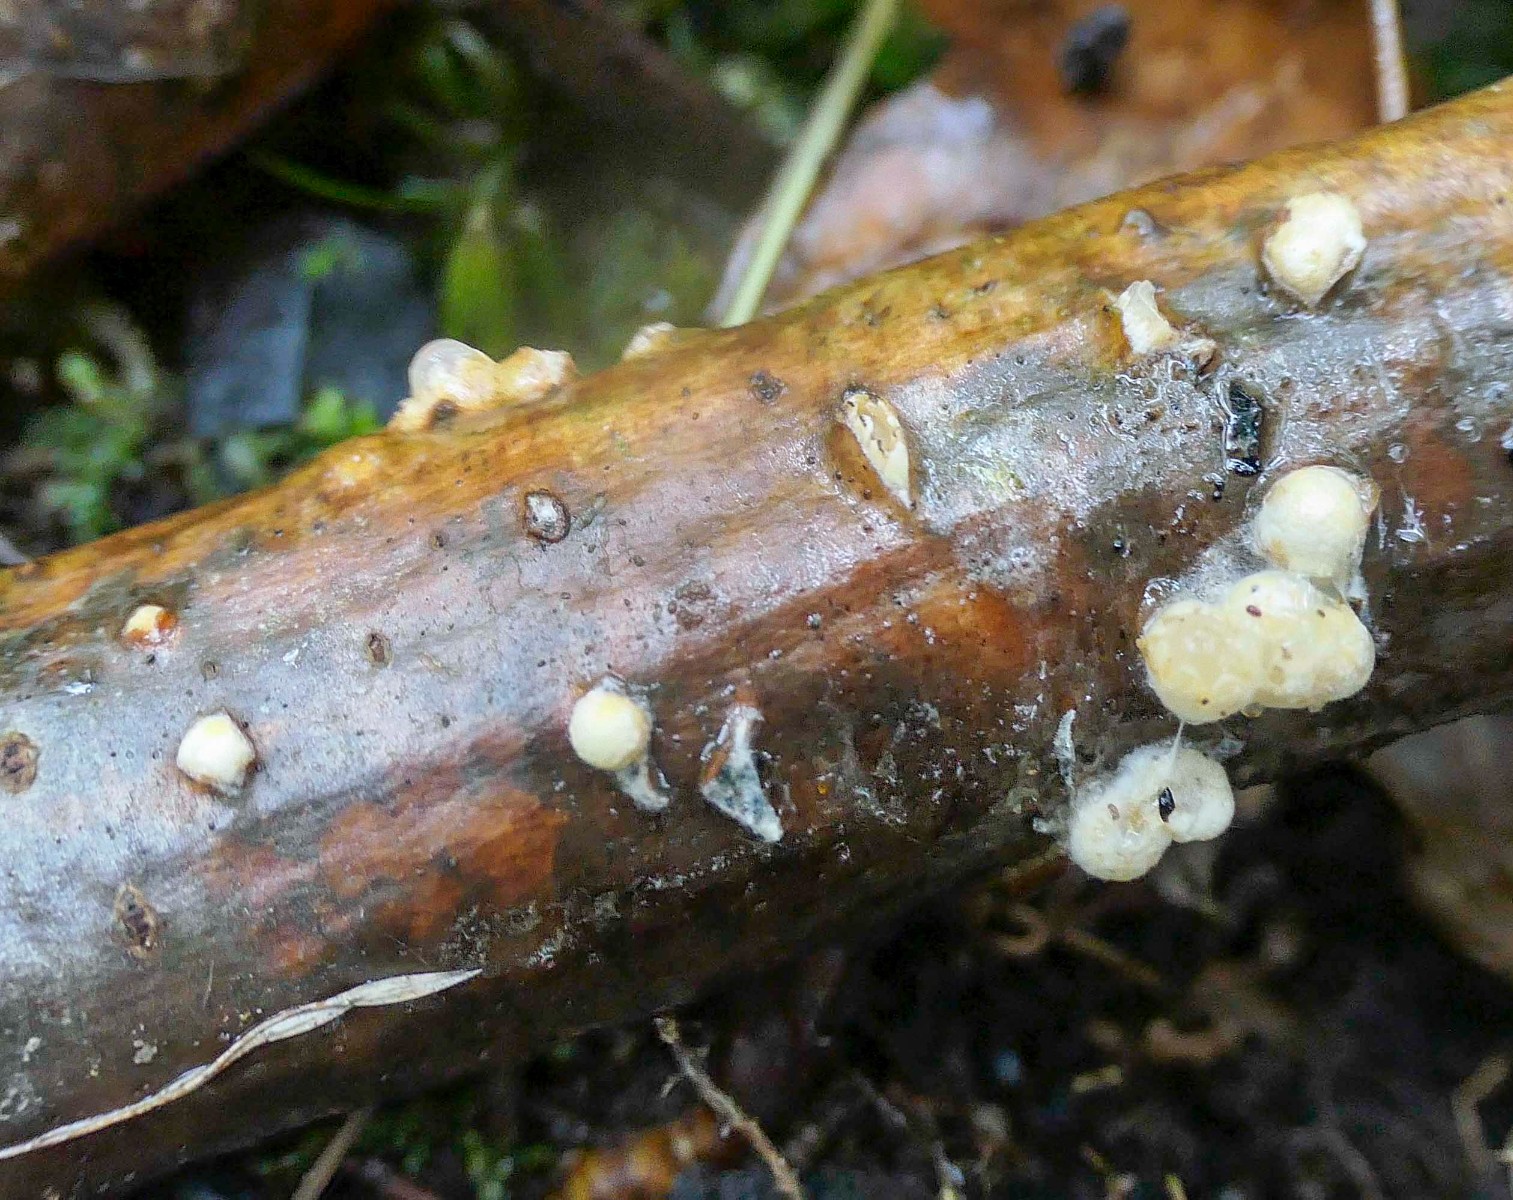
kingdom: Fungi
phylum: Basidiomycota
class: Agaricomycetes
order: Geastrales
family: Geastraceae
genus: Sphaerobolus
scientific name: Sphaerobolus stellatus
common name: bombekaster
